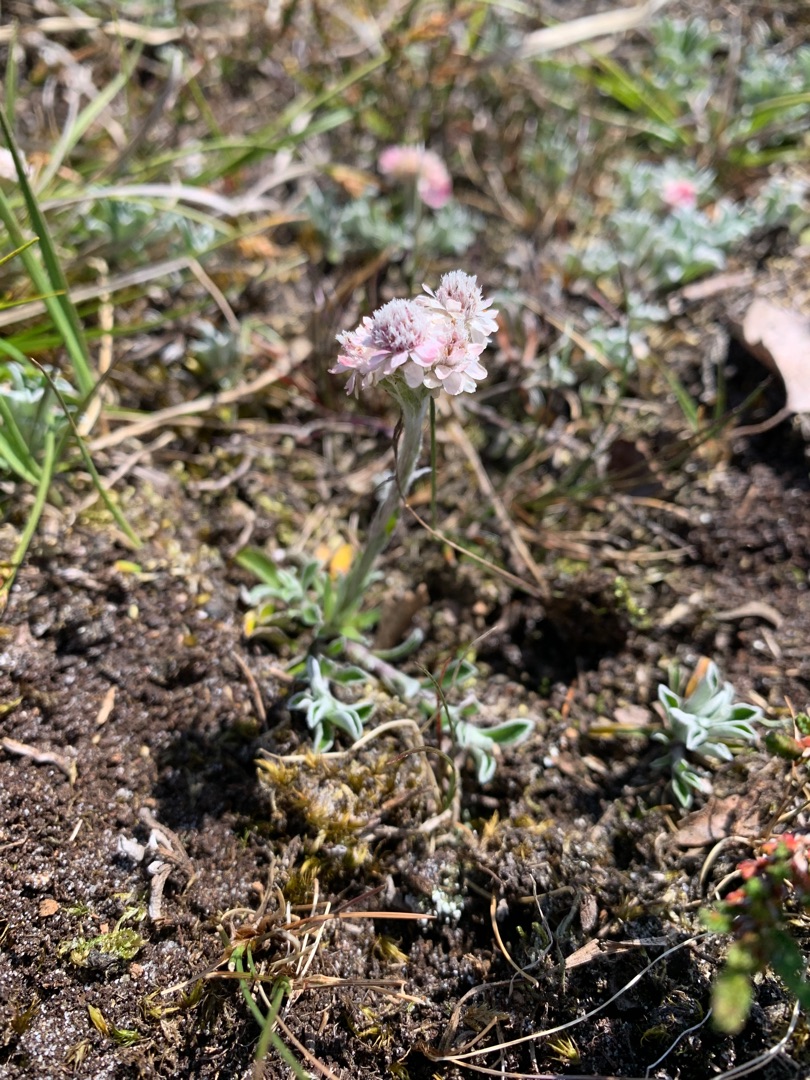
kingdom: Plantae
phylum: Tracheophyta
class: Magnoliopsida
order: Asterales
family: Asteraceae
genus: Antennaria
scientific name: Antennaria dioica
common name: Kattefod
